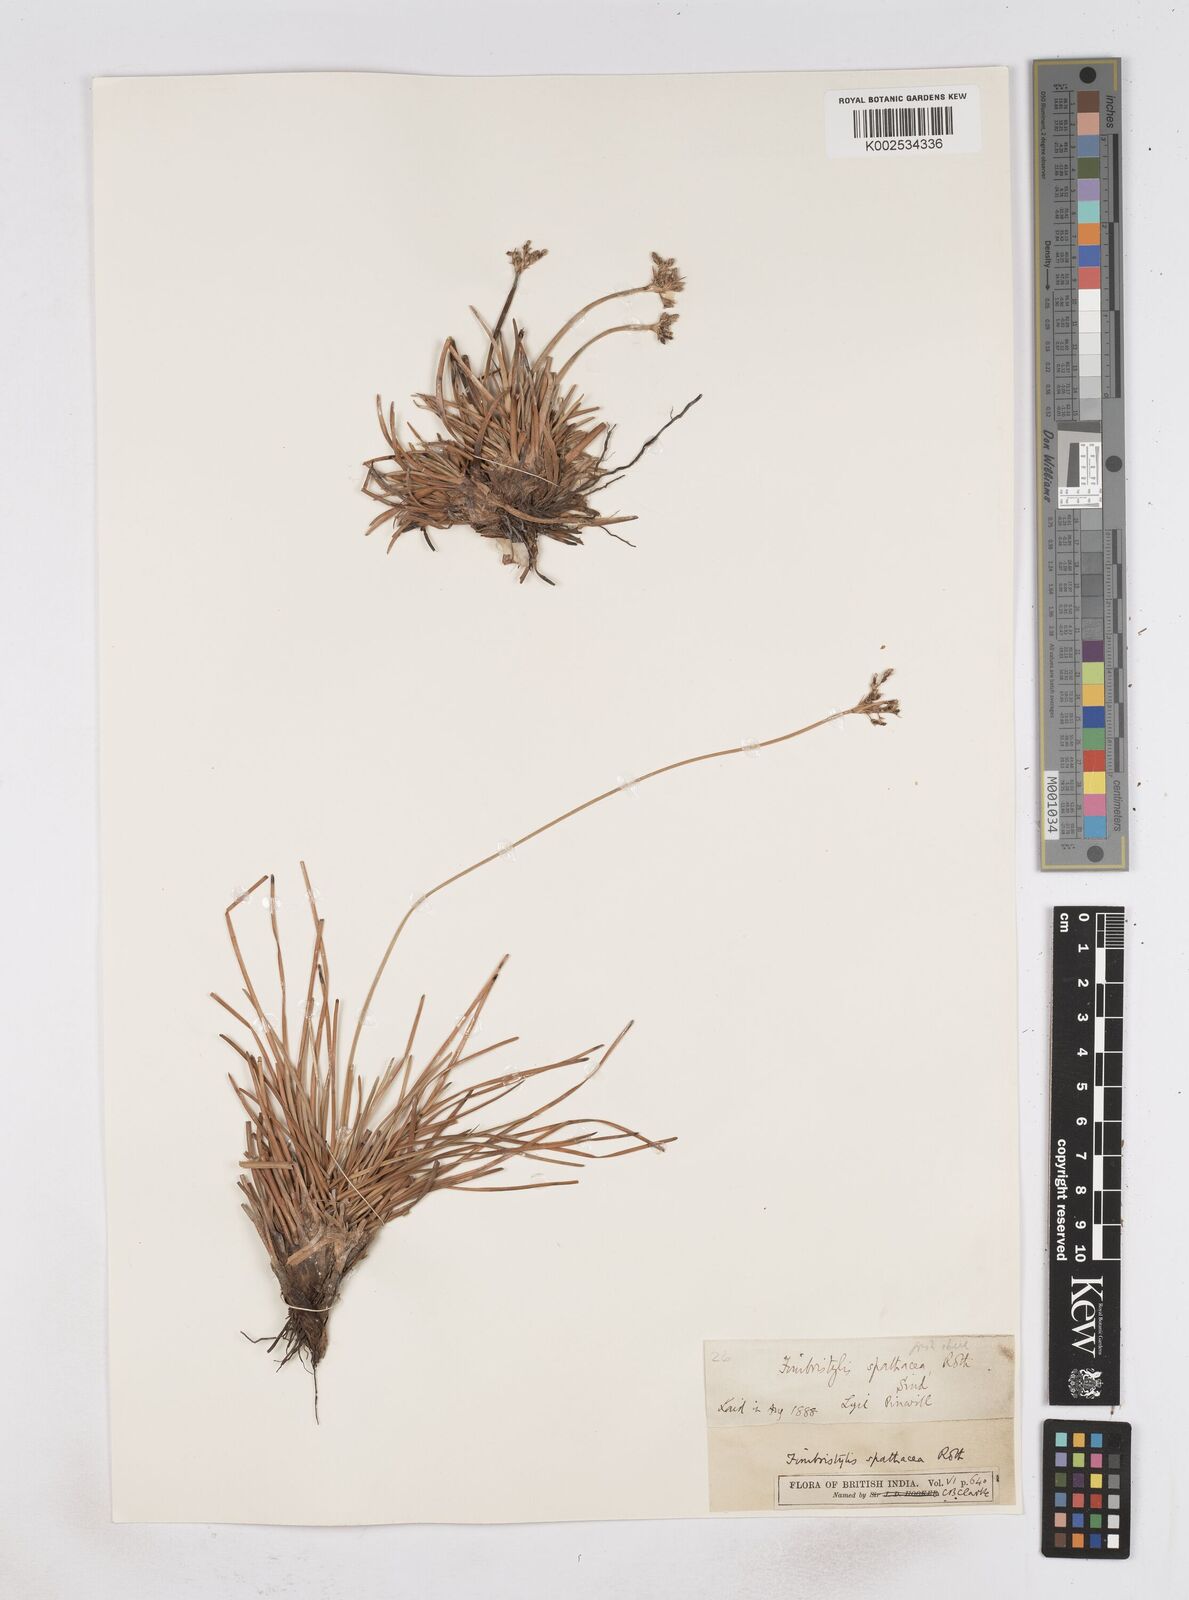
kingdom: Plantae
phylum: Tracheophyta
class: Liliopsida
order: Poales
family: Cyperaceae
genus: Fimbristylis
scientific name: Fimbristylis cymosa
